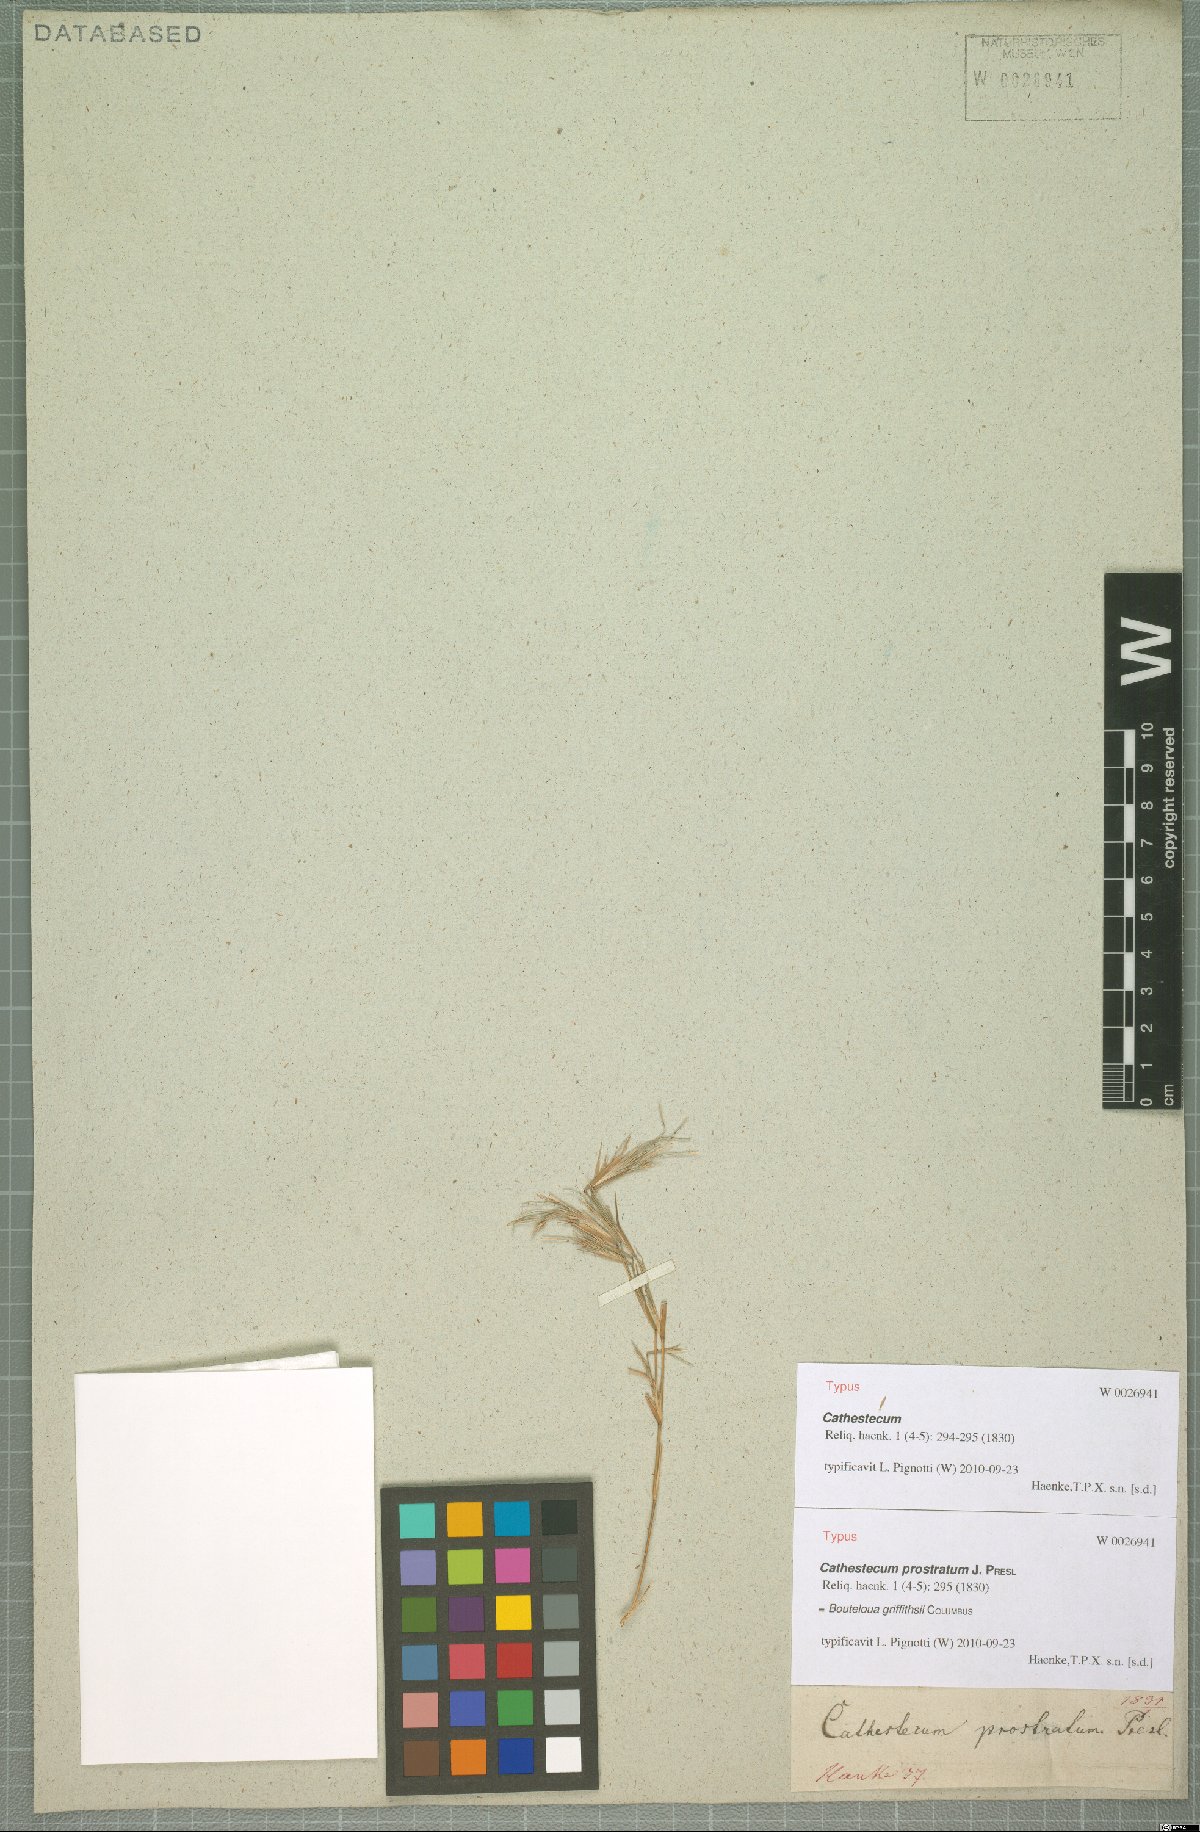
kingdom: Plantae
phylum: Tracheophyta
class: Liliopsida
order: Poales
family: Poaceae
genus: Bouteloua
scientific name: Bouteloua griffithsii
